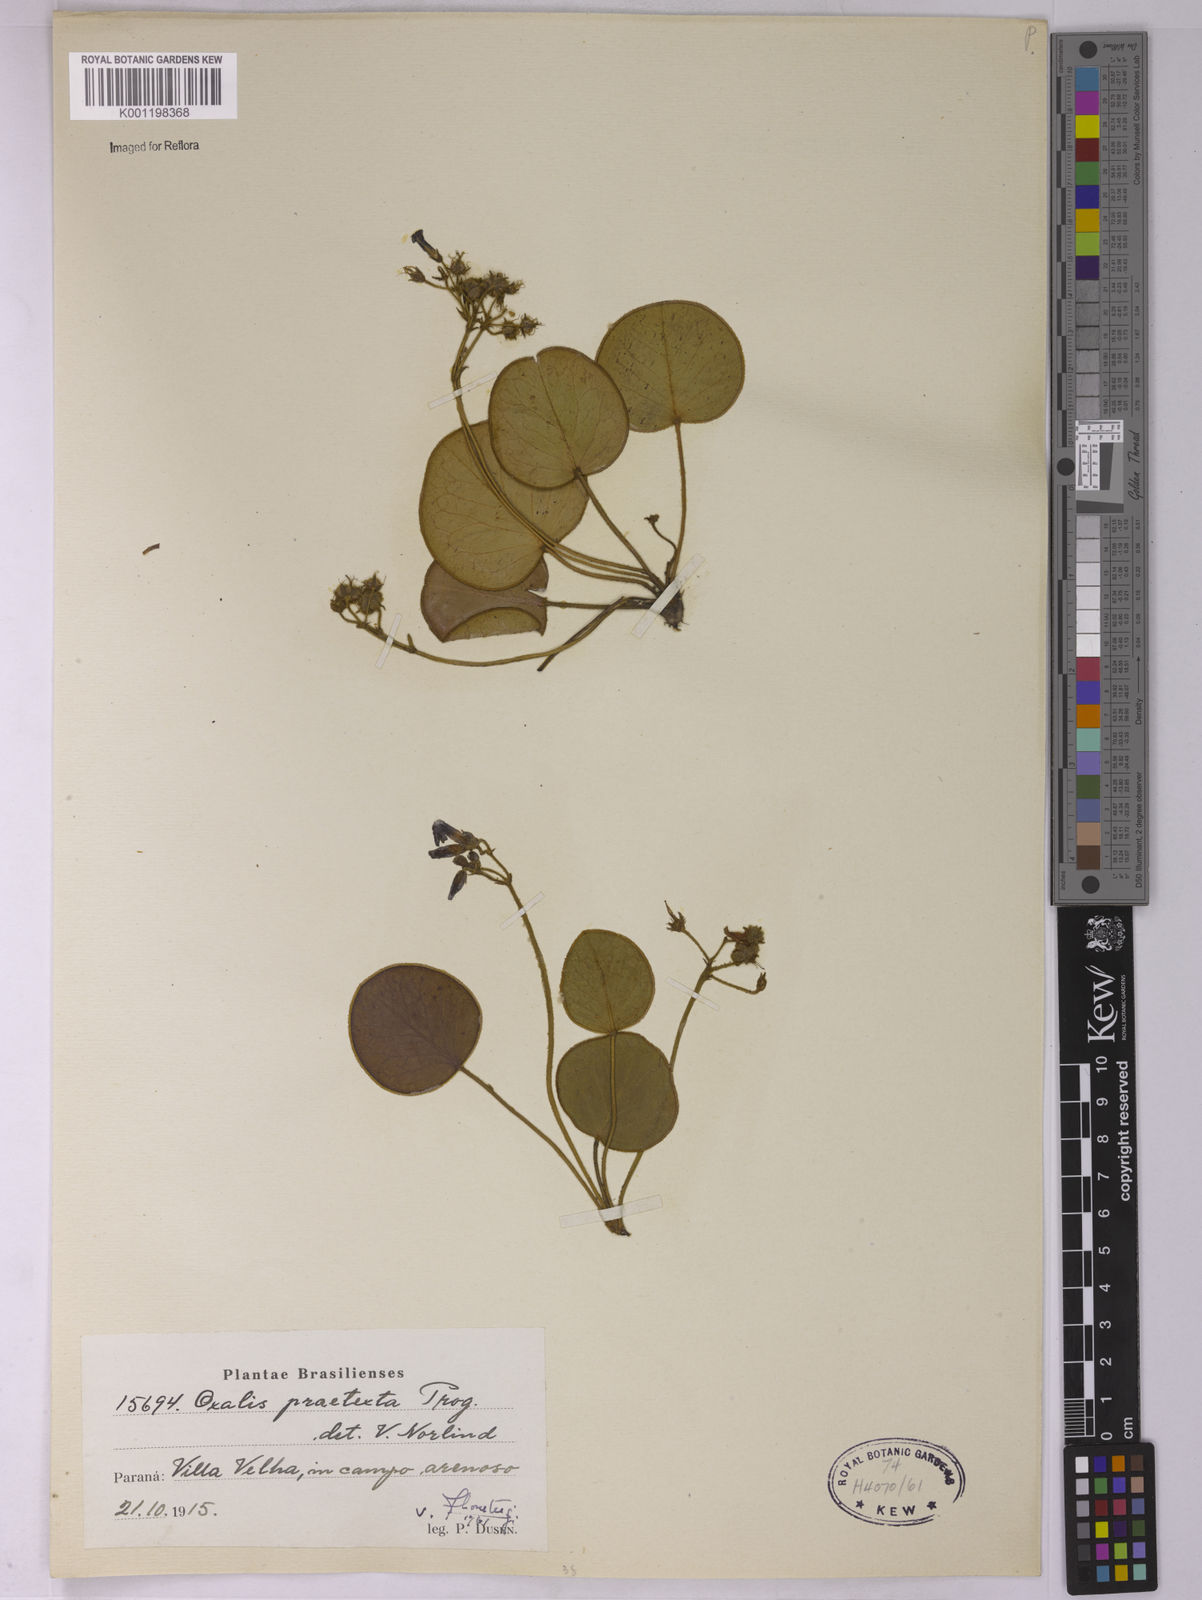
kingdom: Plantae
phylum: Tracheophyta
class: Magnoliopsida
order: Oxalidales
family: Oxalidaceae
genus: Oxalis
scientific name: Oxalis praetexta
